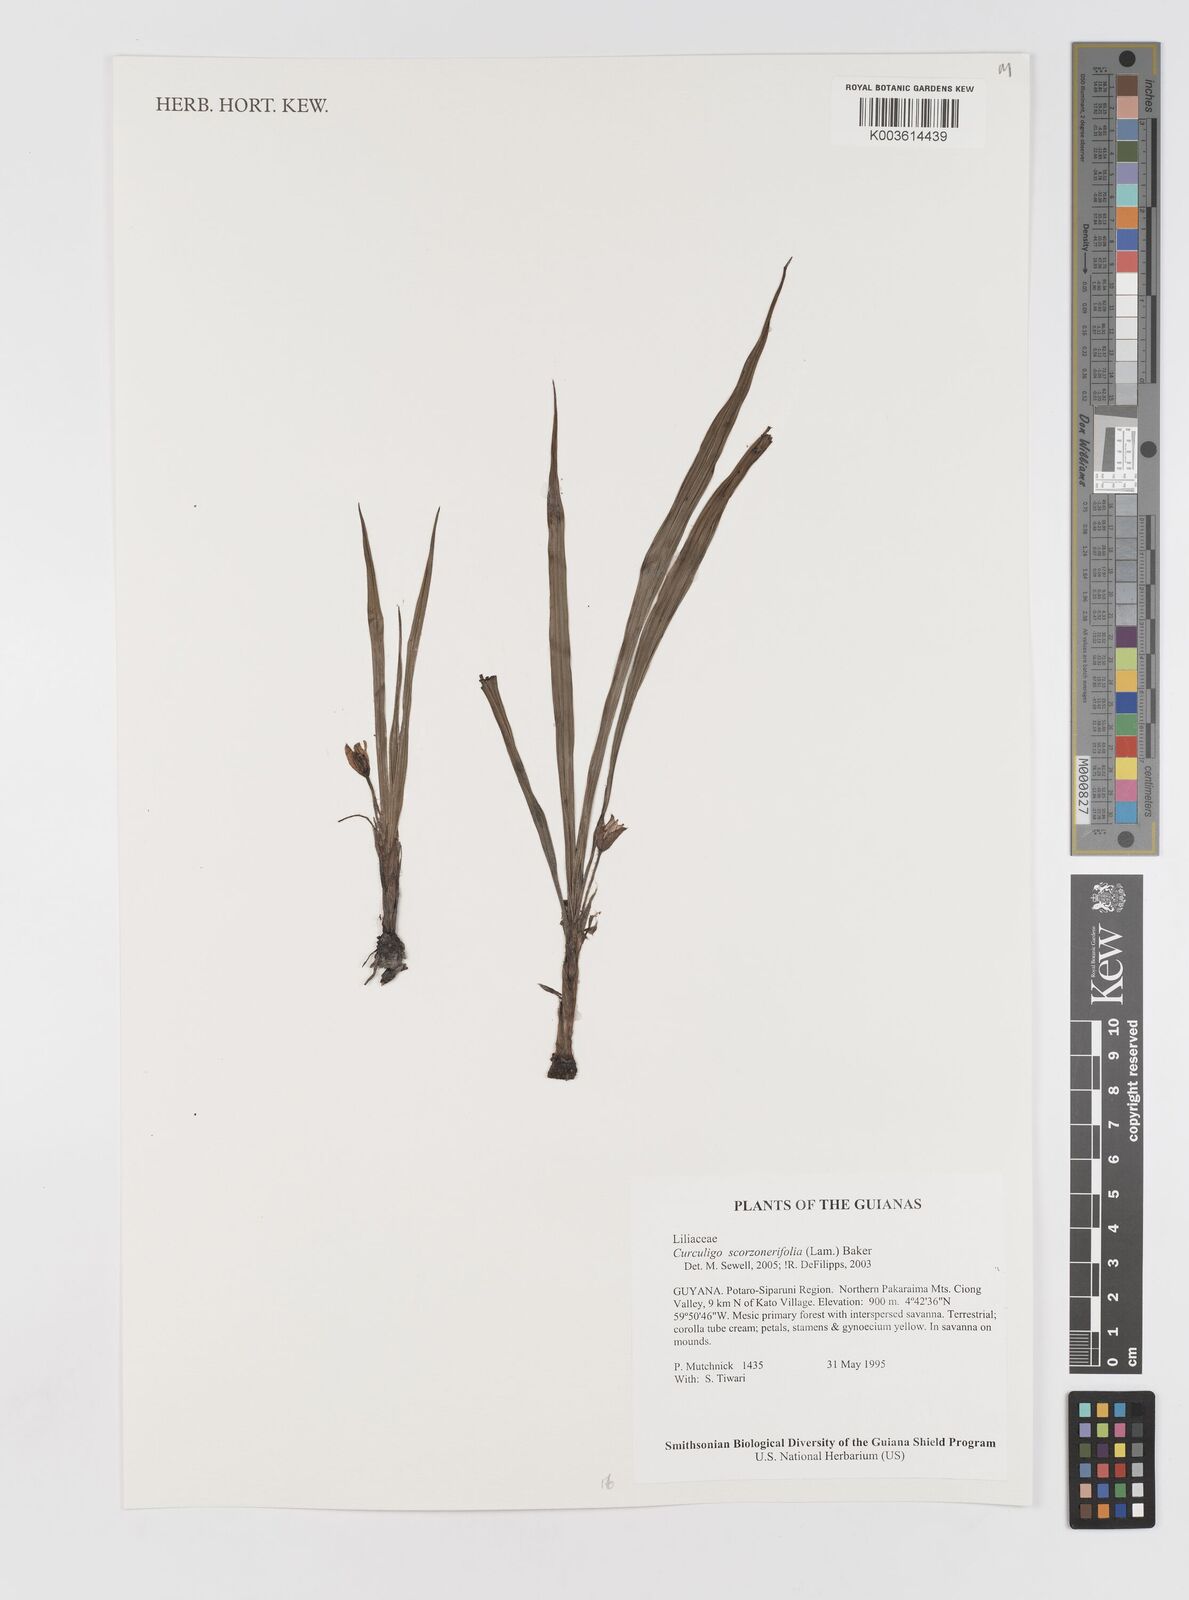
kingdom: Plantae
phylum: Tracheophyta
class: Liliopsida
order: Asparagales
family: Hypoxidaceae
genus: Curculigo
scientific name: Curculigo scorzonerifolia
